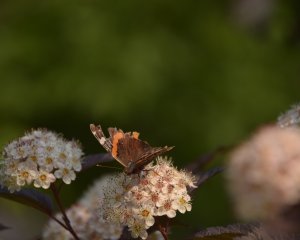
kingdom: Animalia
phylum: Arthropoda
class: Insecta
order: Lepidoptera
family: Nymphalidae
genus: Vanessa
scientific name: Vanessa atalanta
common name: Red Admiral
